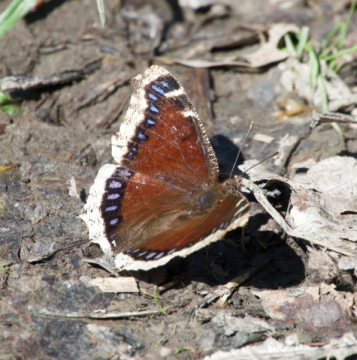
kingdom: Animalia
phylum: Arthropoda
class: Insecta
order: Lepidoptera
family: Nymphalidae
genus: Nymphalis
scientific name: Nymphalis antiopa
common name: Mourning Cloak
